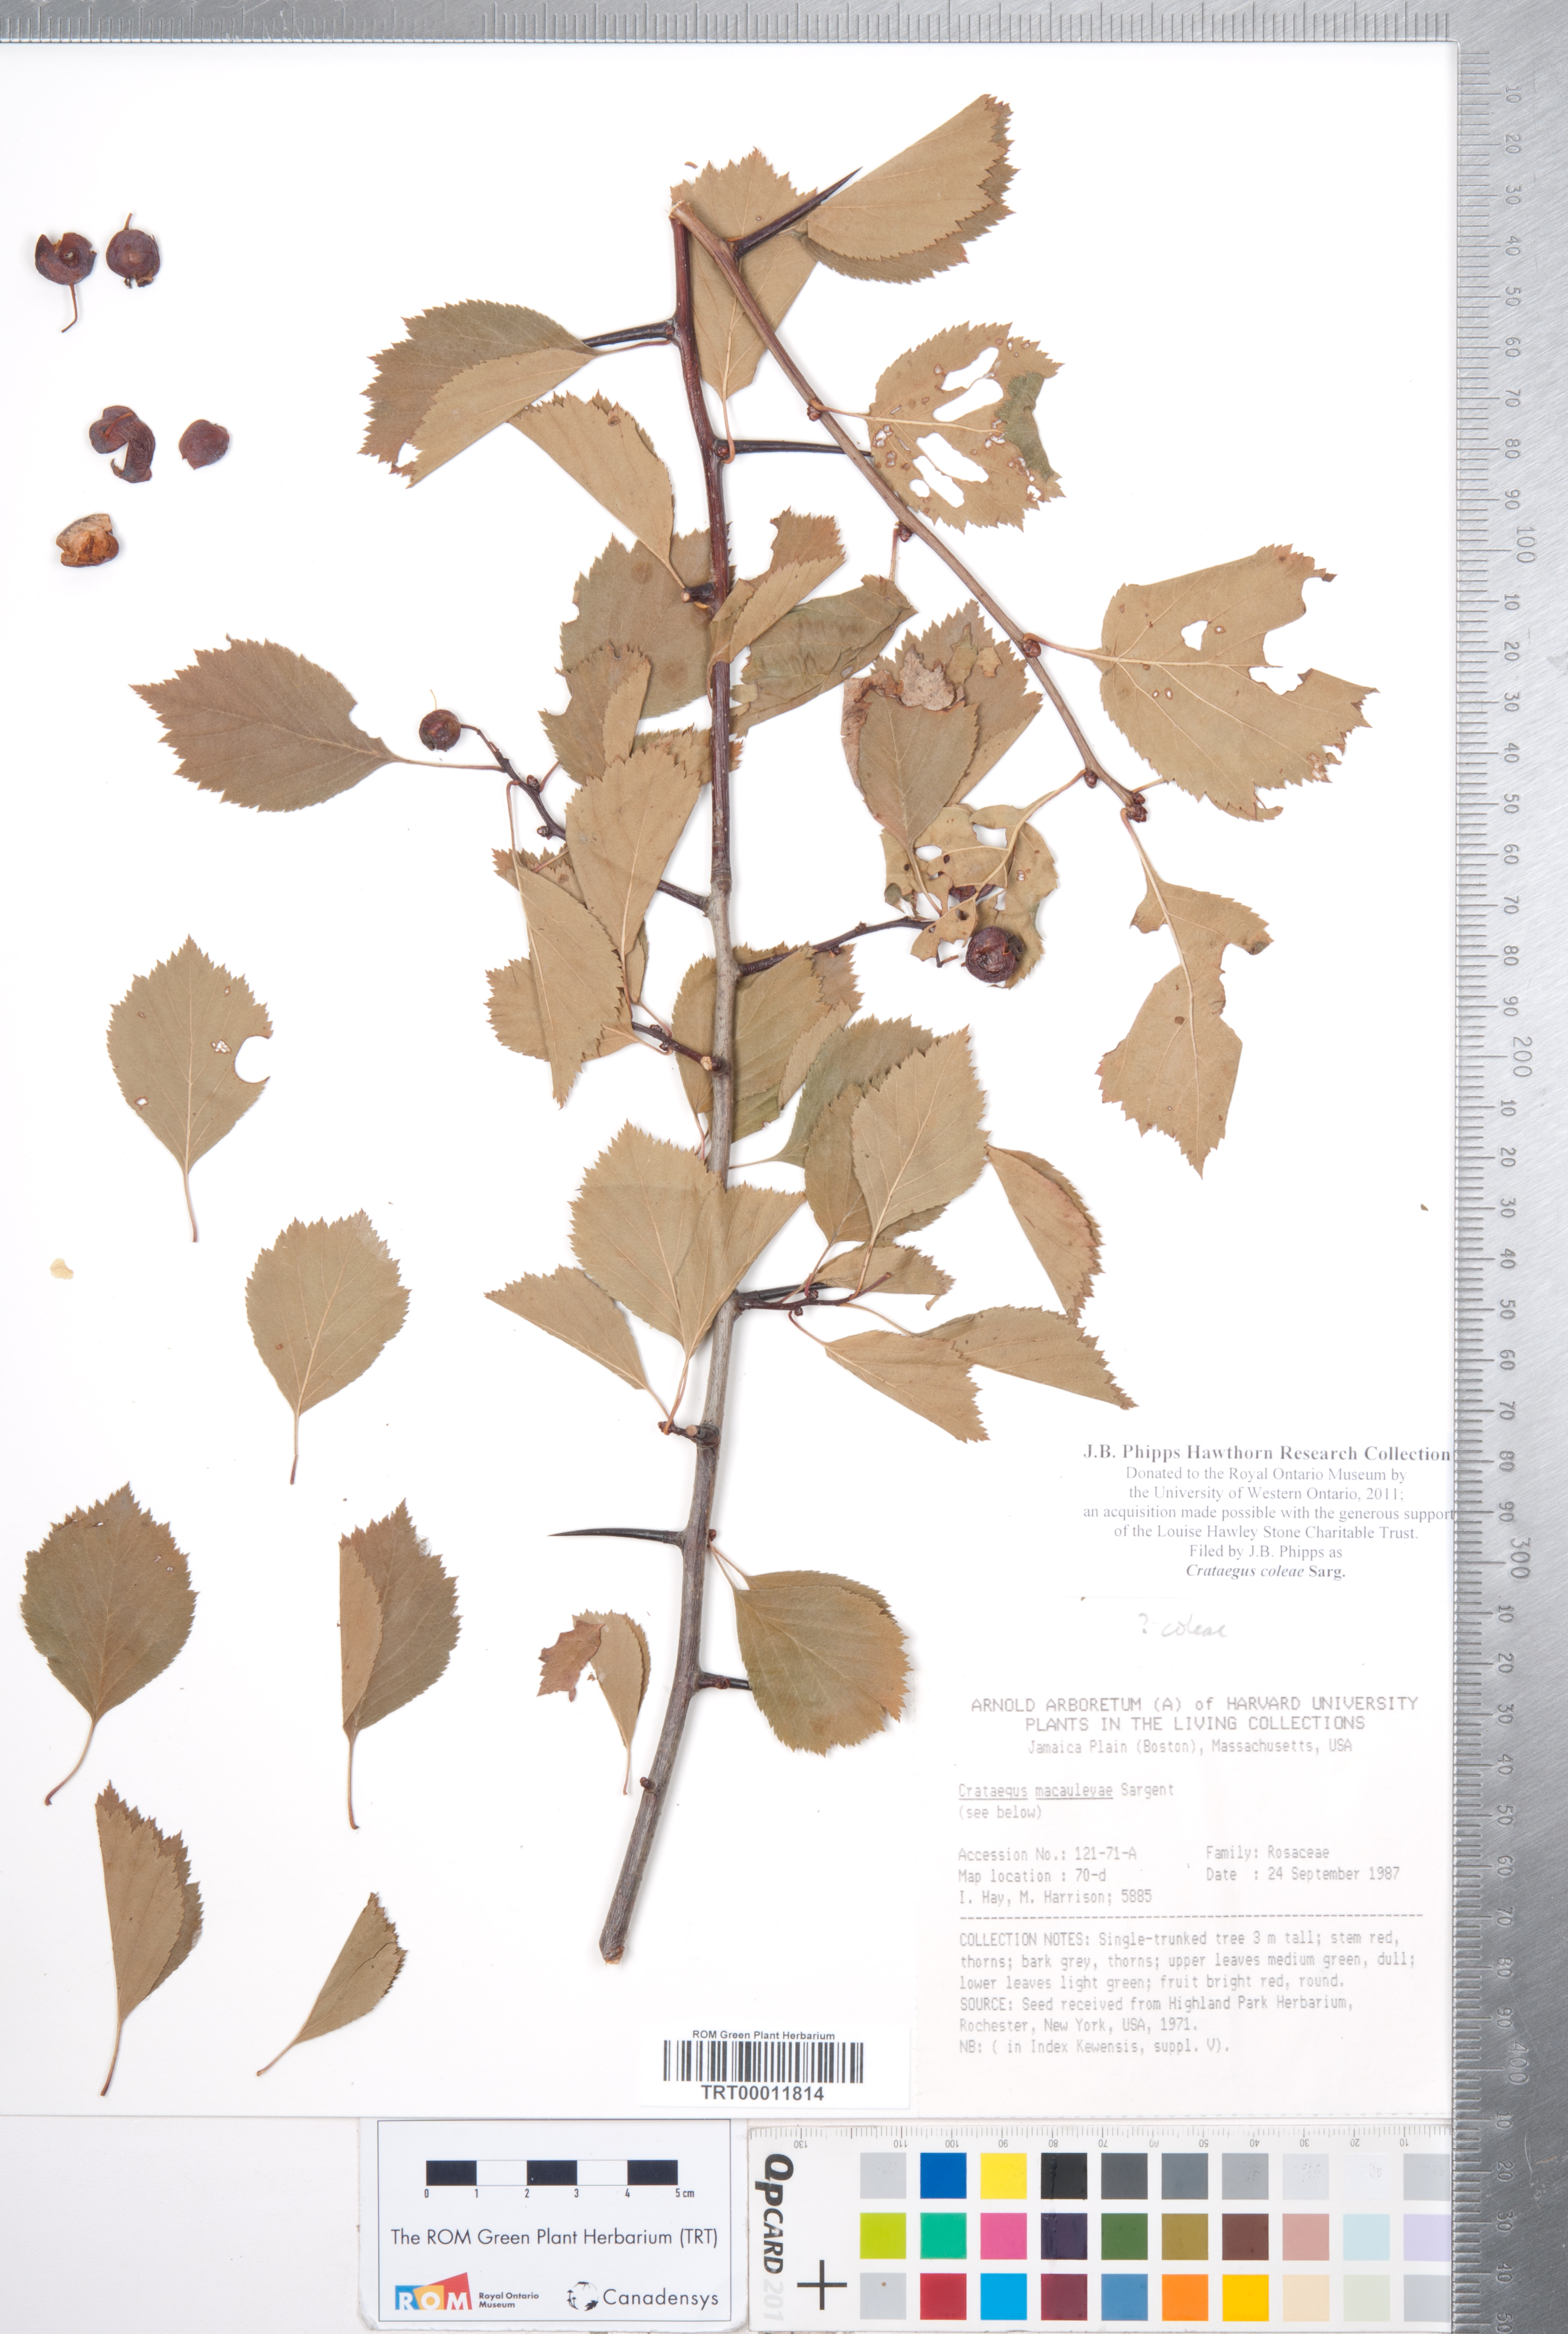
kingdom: Plantae
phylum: Tracheophyta
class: Magnoliopsida
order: Rosales
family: Rosaceae
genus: Crataegus
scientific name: Crataegus coleae
